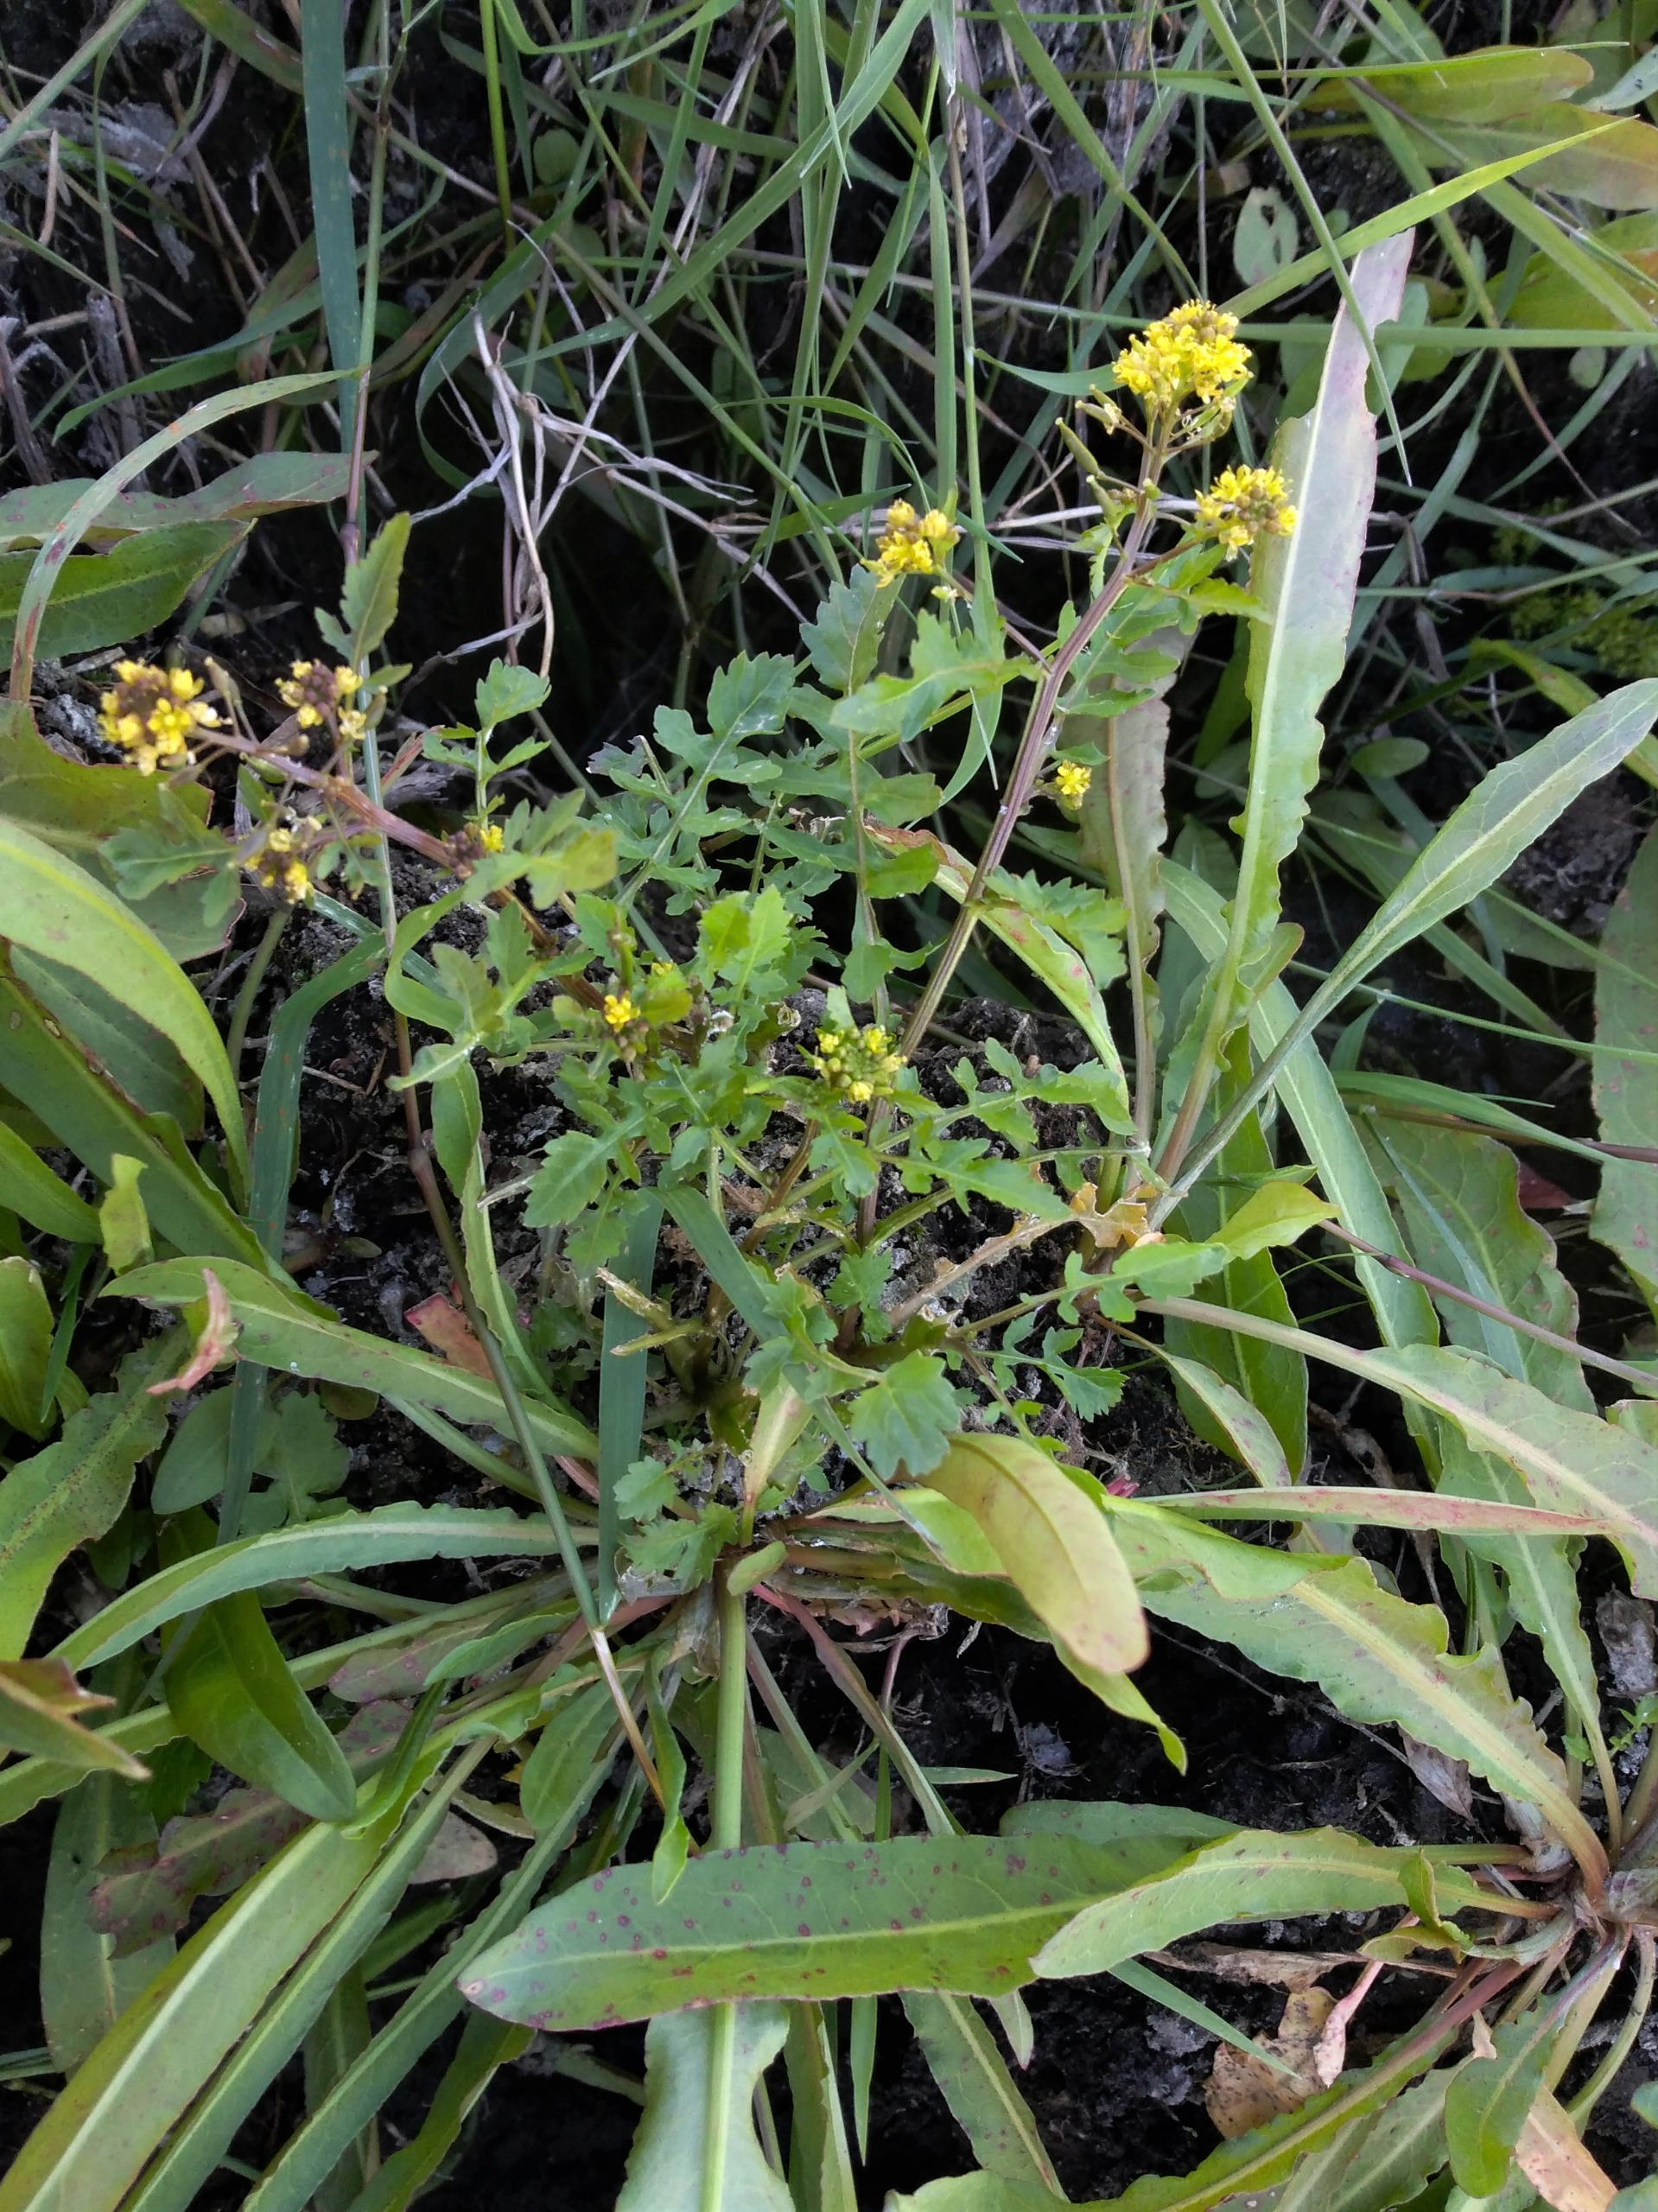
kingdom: Plantae
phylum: Tracheophyta
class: Magnoliopsida
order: Brassicales
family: Brassicaceae
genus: Rorippa
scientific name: Rorippa palustris
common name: Kær-guldkarse
